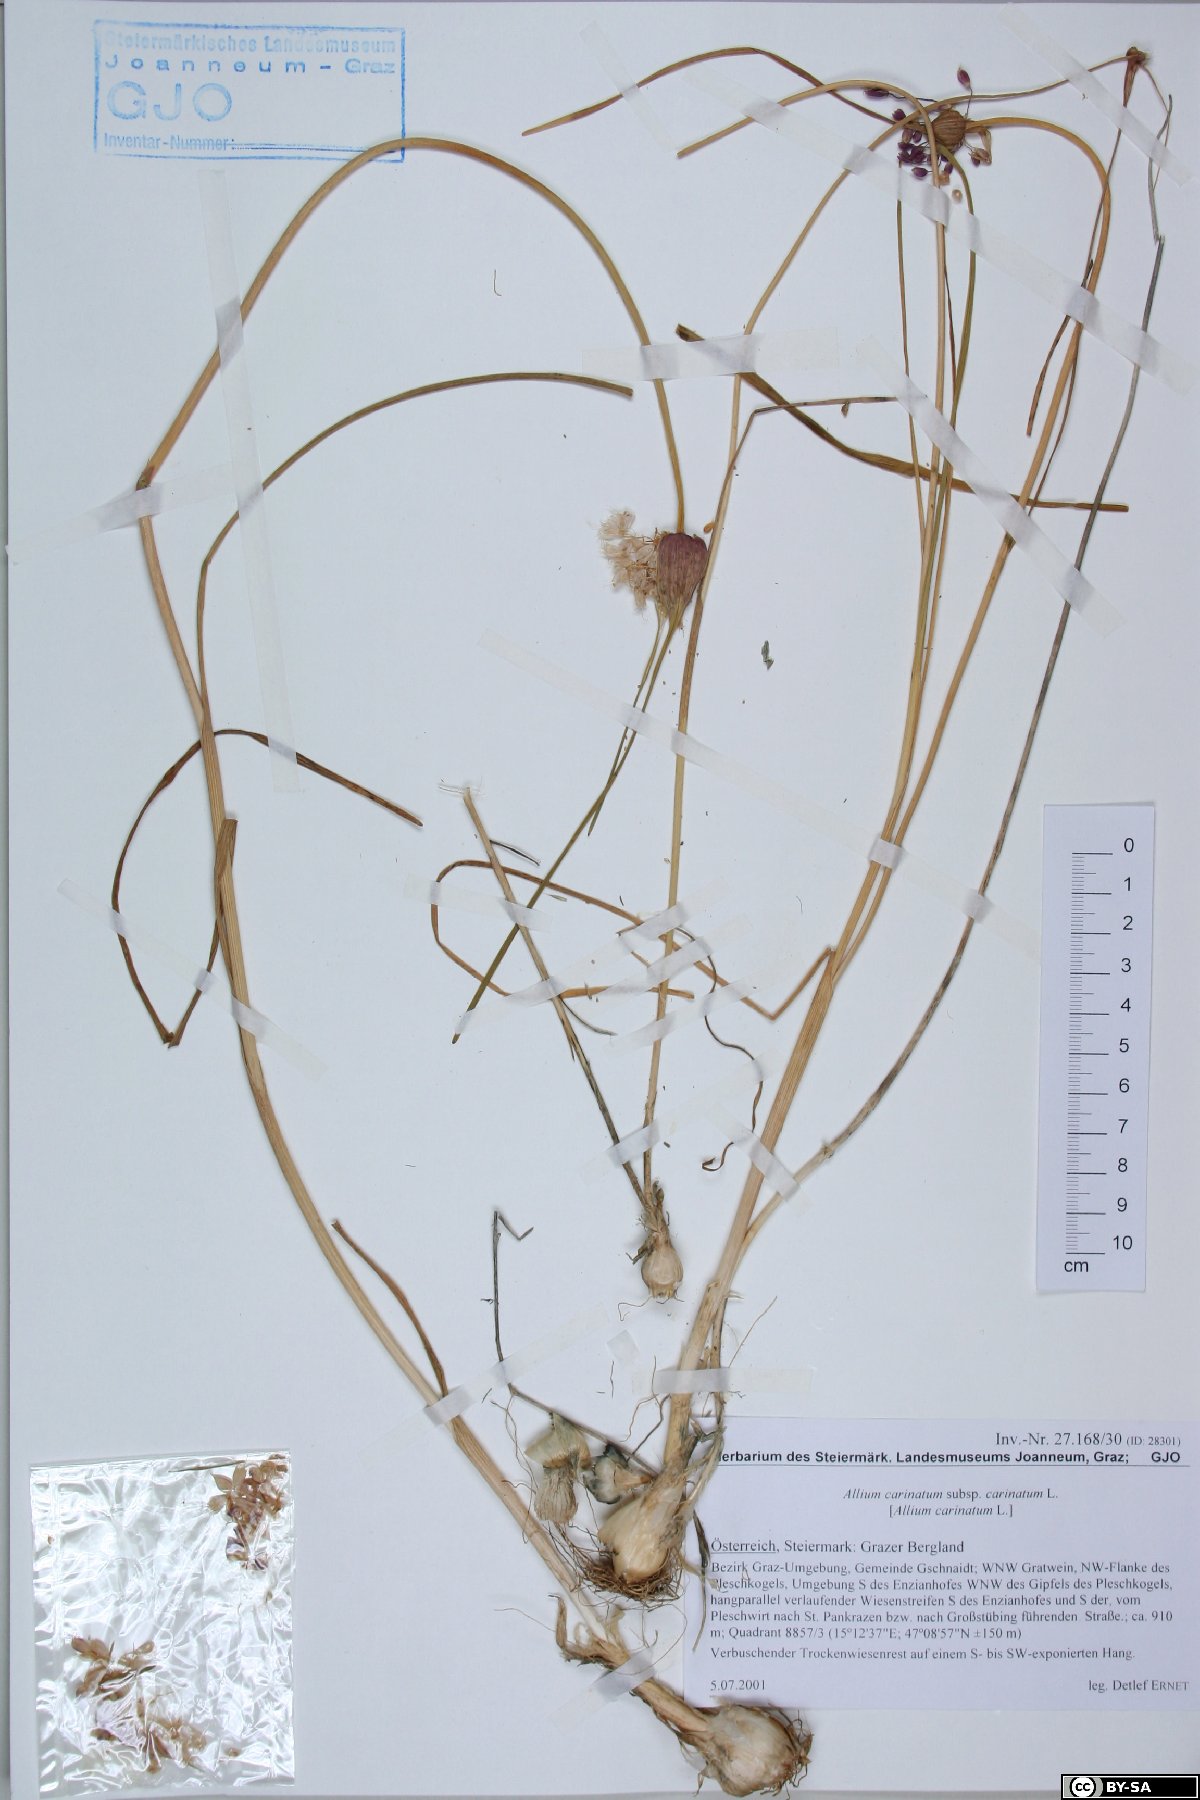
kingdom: Plantae
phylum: Tracheophyta
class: Liliopsida
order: Asparagales
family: Amaryllidaceae
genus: Allium
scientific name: Allium carinatum
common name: Keeled garlic
